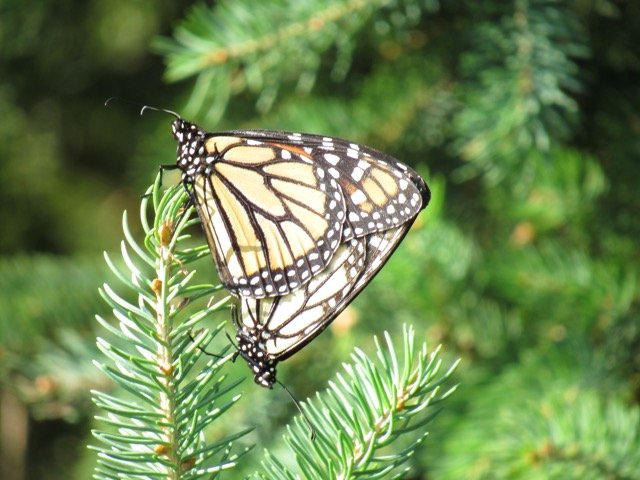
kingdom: Animalia
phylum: Arthropoda
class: Insecta
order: Lepidoptera
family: Nymphalidae
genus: Danaus
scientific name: Danaus plexippus
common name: Monarch
